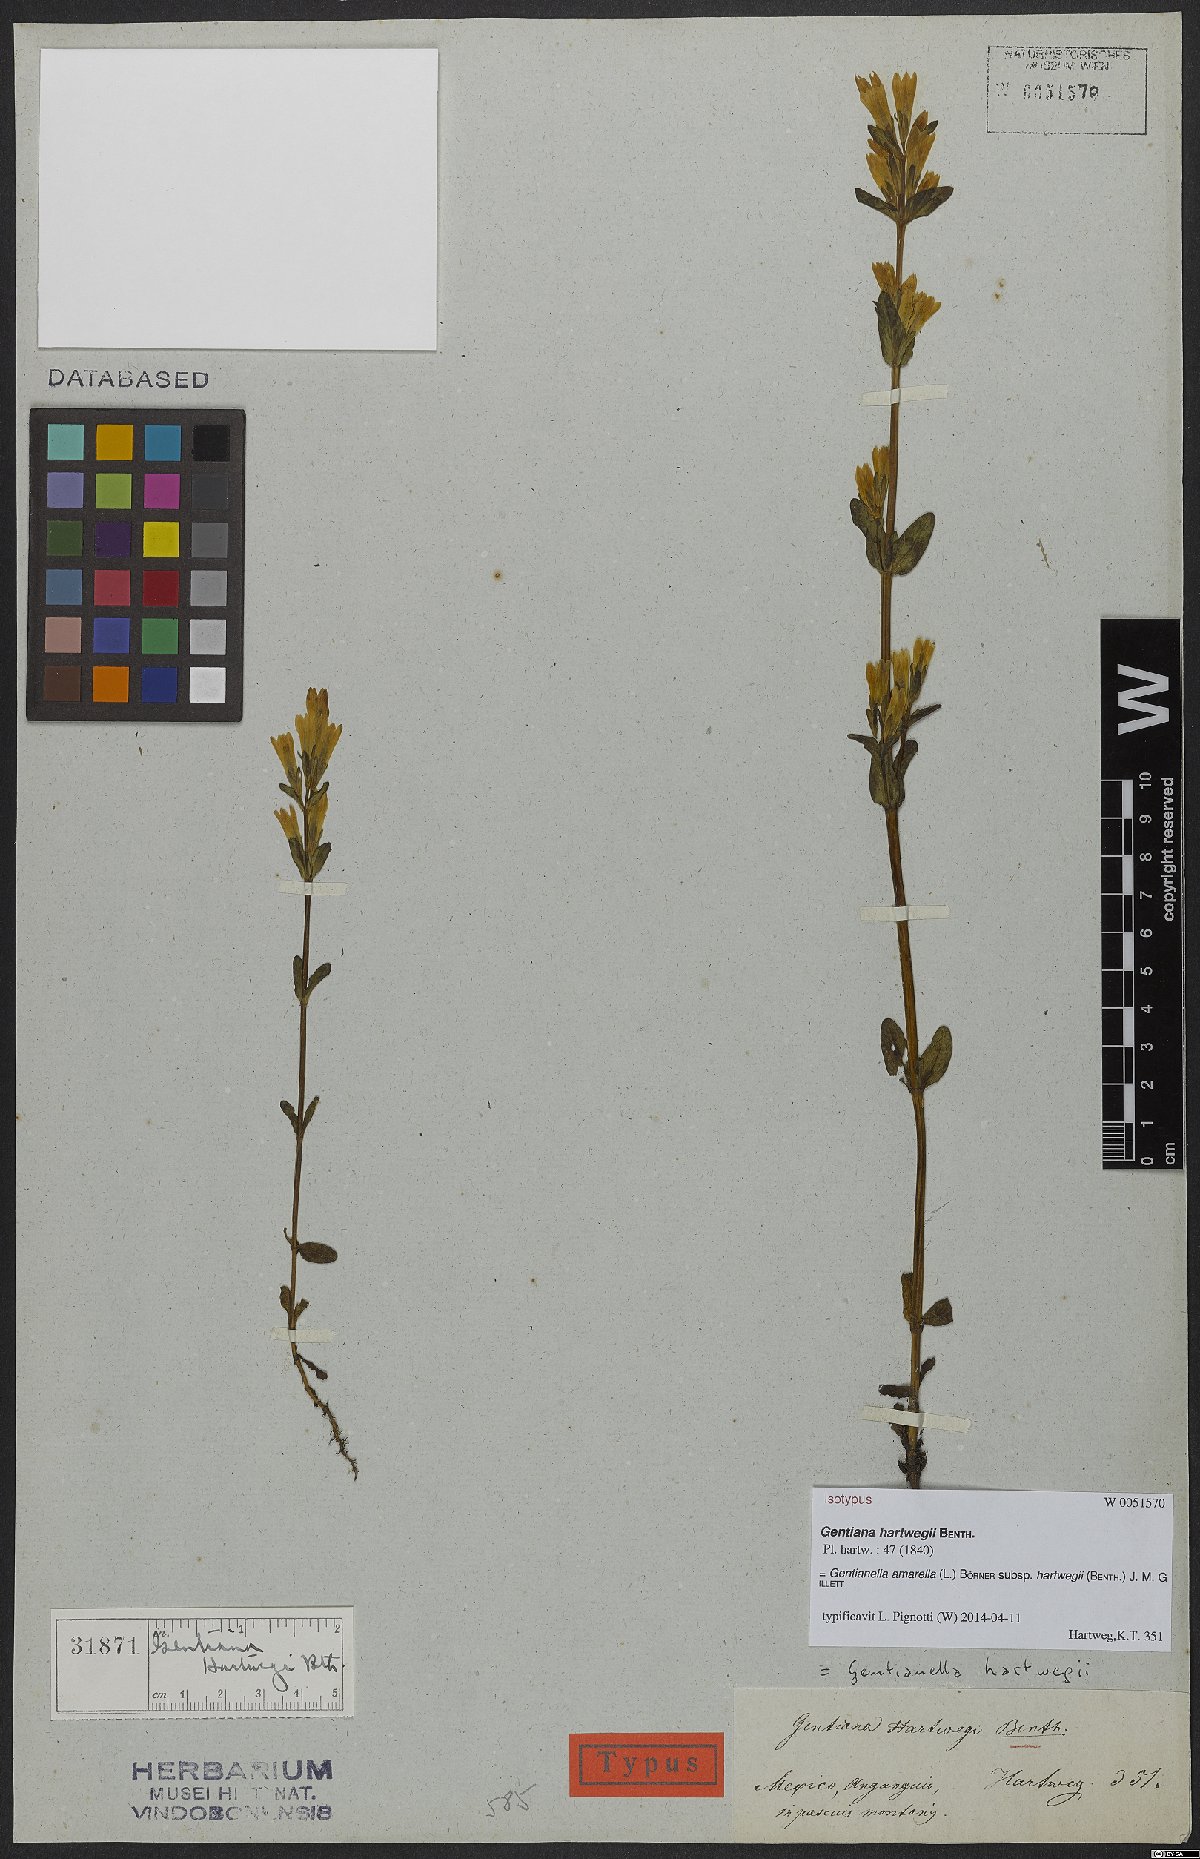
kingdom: Plantae
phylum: Tracheophyta
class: Magnoliopsida
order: Gentianales
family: Gentianaceae
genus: Gentianella
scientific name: Gentianella amarella
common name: Autumn gentian
